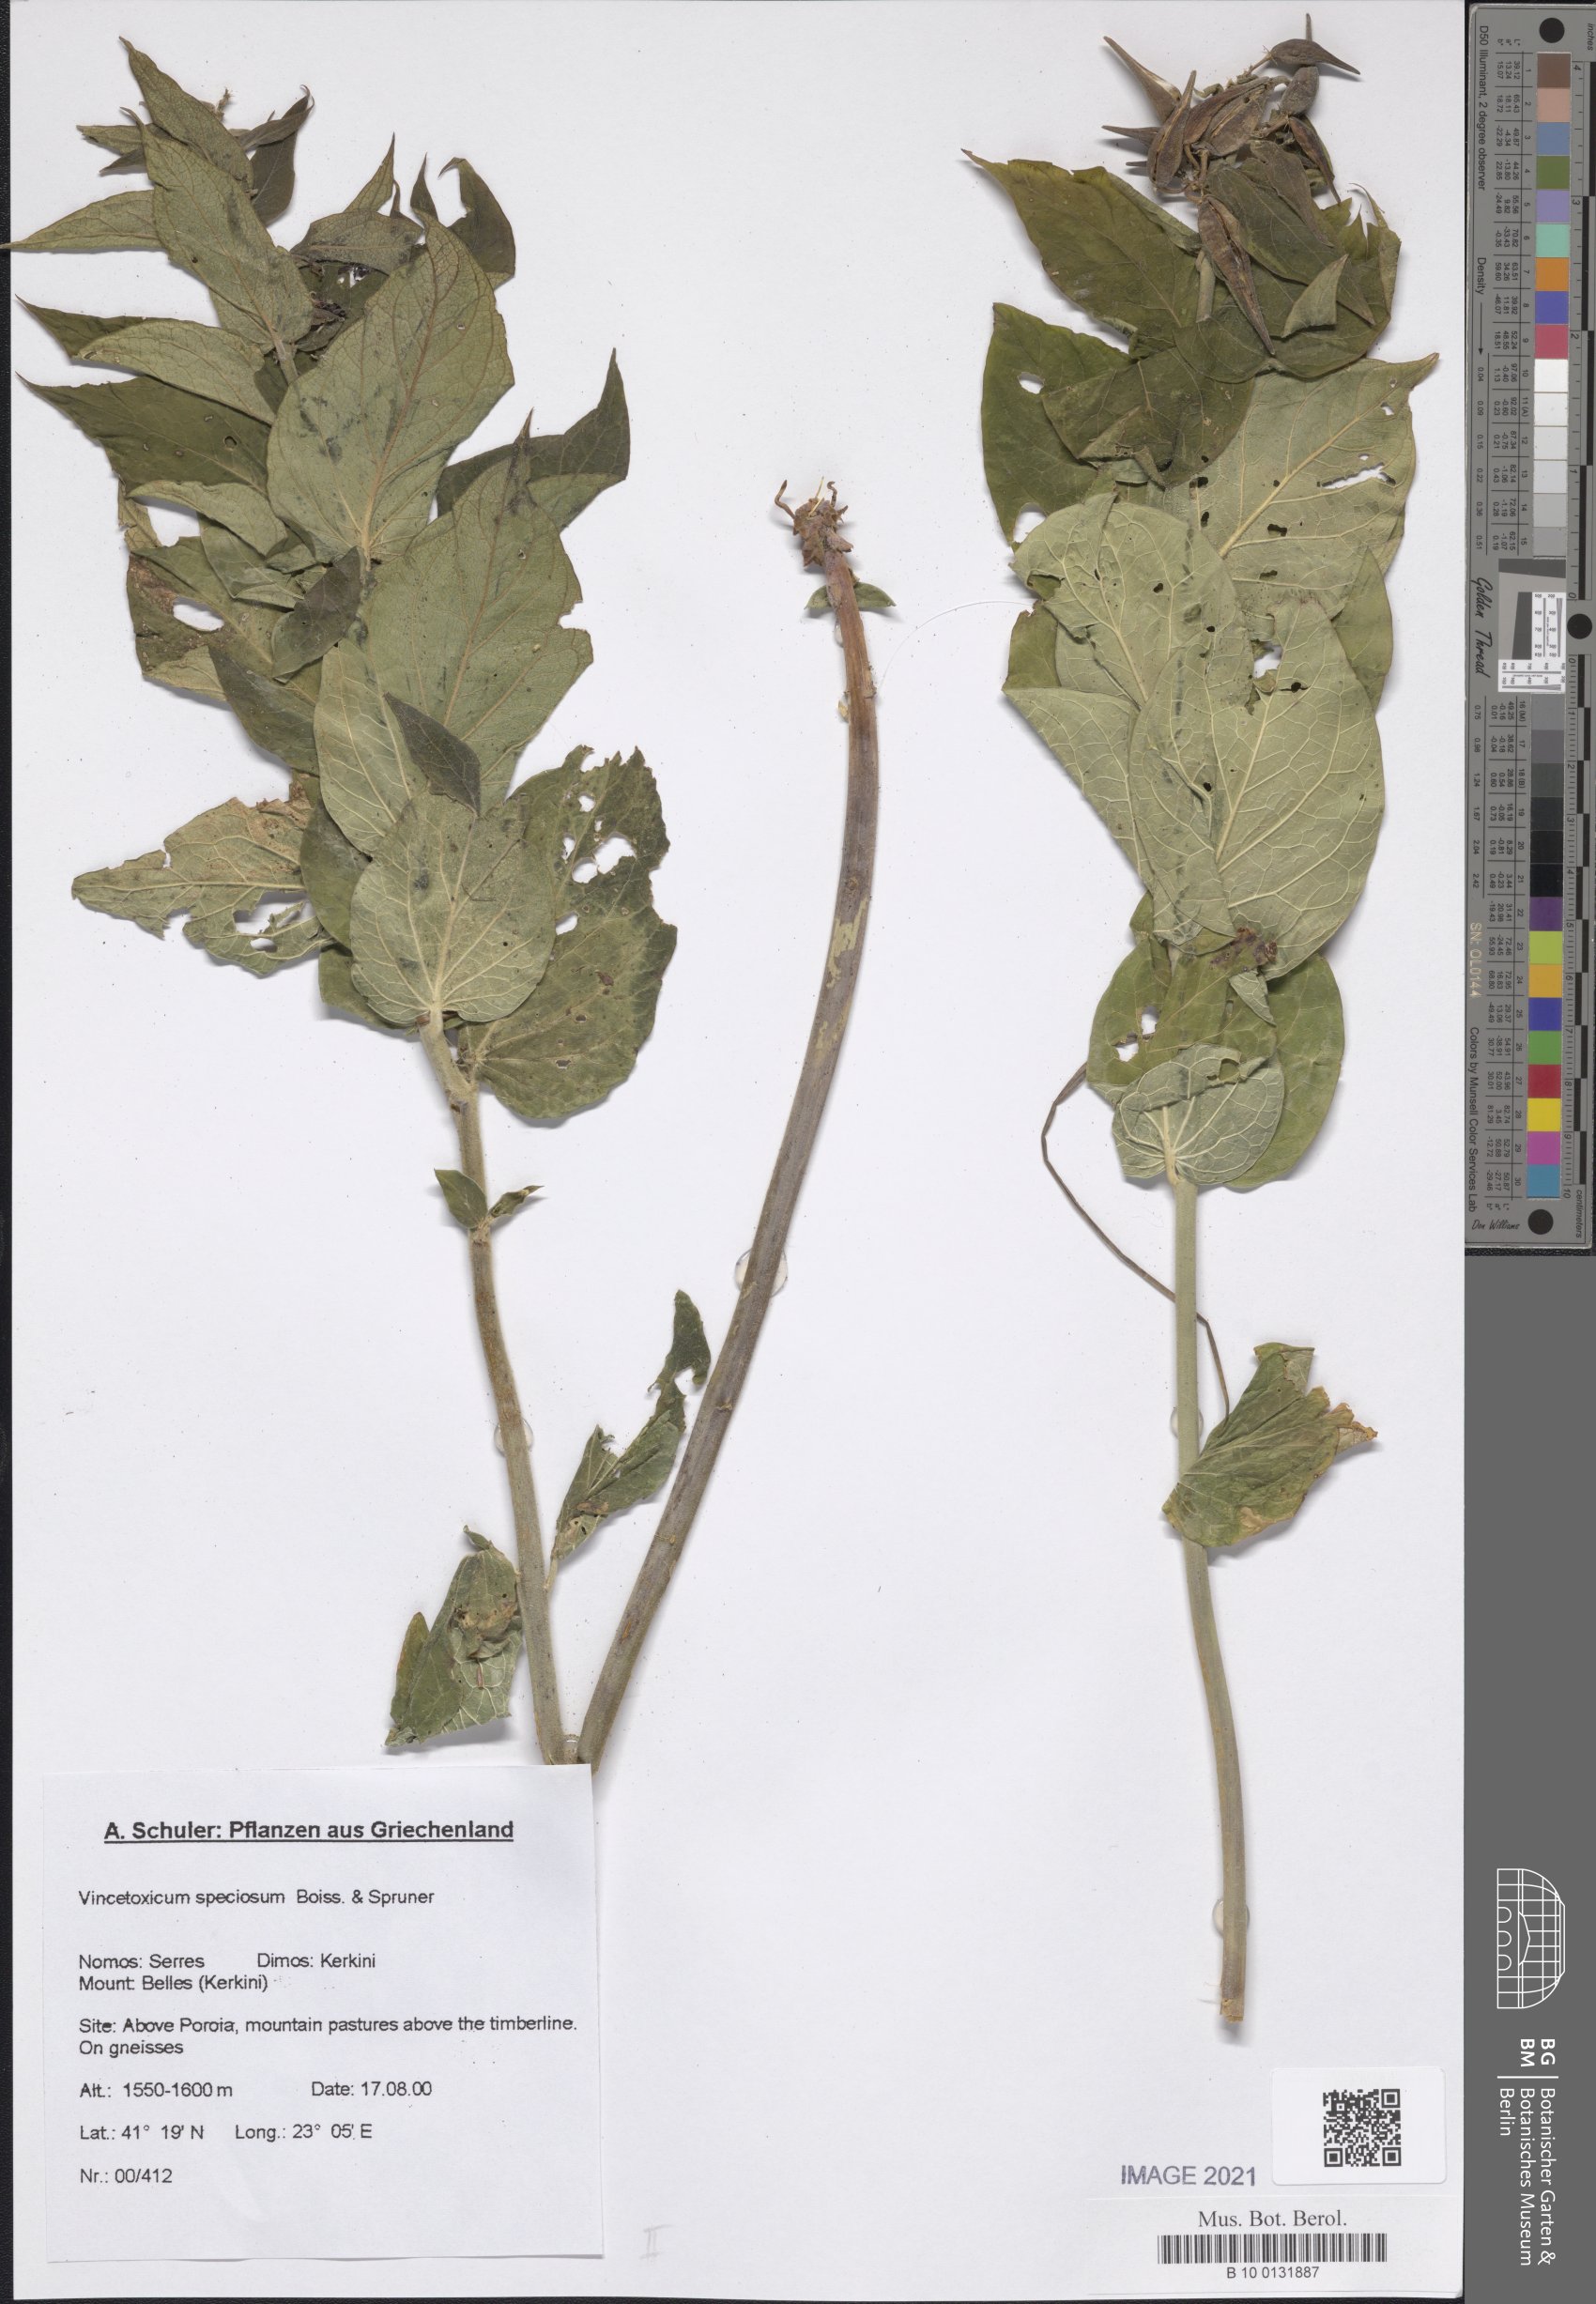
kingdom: Plantae
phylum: Tracheophyta
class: Magnoliopsida
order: Gentianales
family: Apocynaceae
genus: Vincetoxicum
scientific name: Vincetoxicum speciosum
